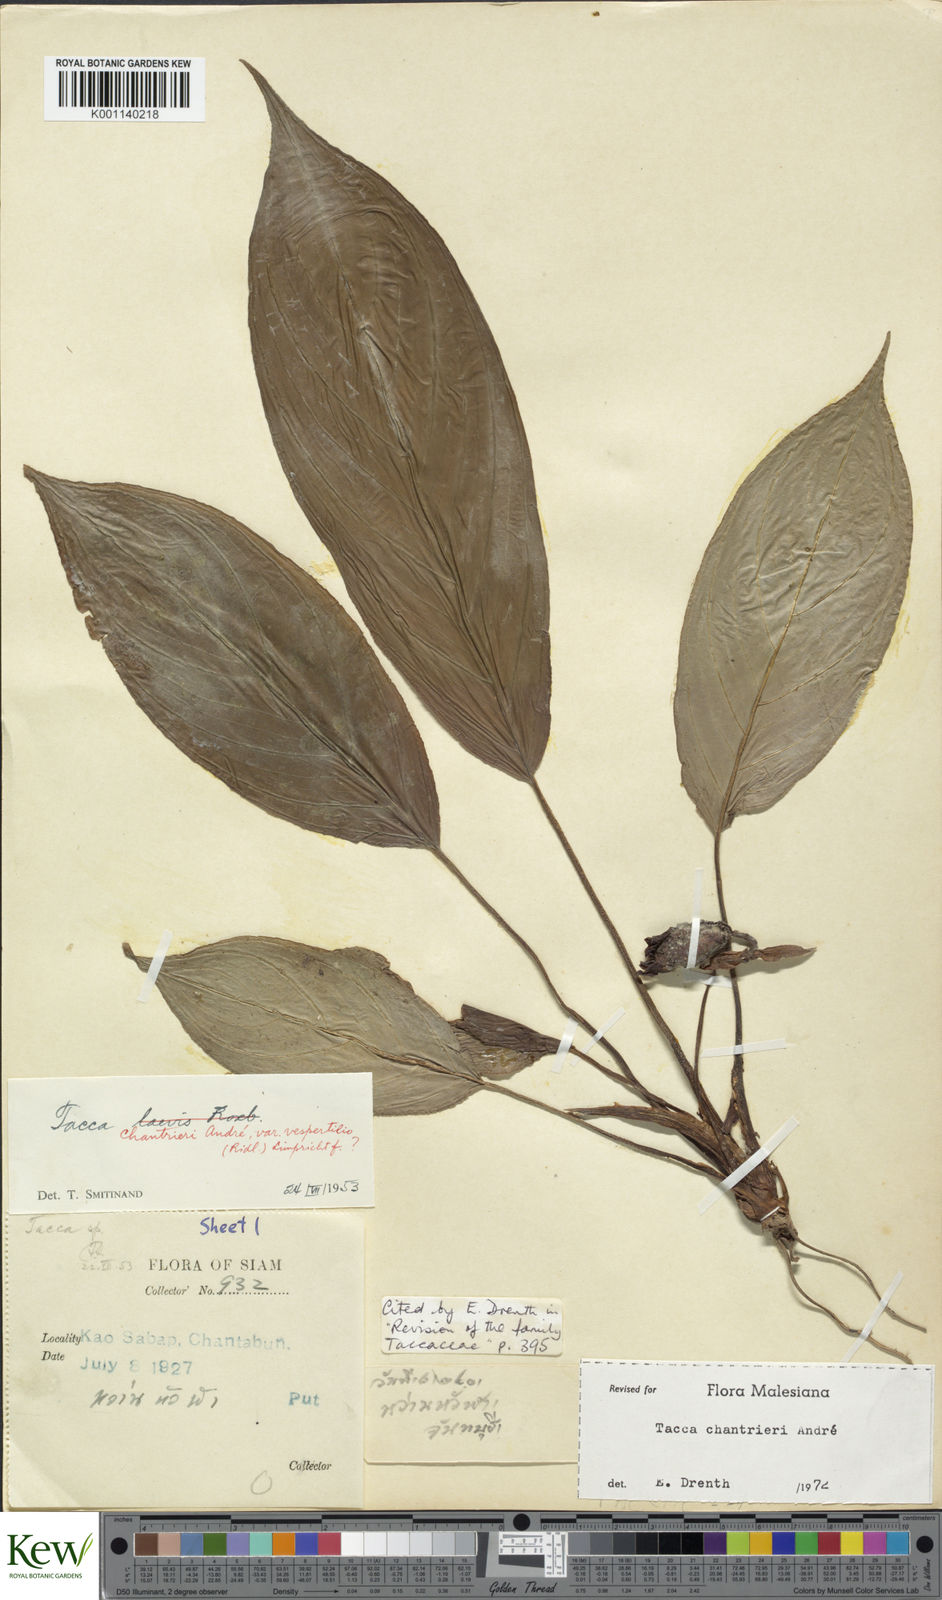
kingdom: Plantae
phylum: Tracheophyta
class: Liliopsida
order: Dioscoreales
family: Dioscoreaceae
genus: Tacca
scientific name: Tacca
